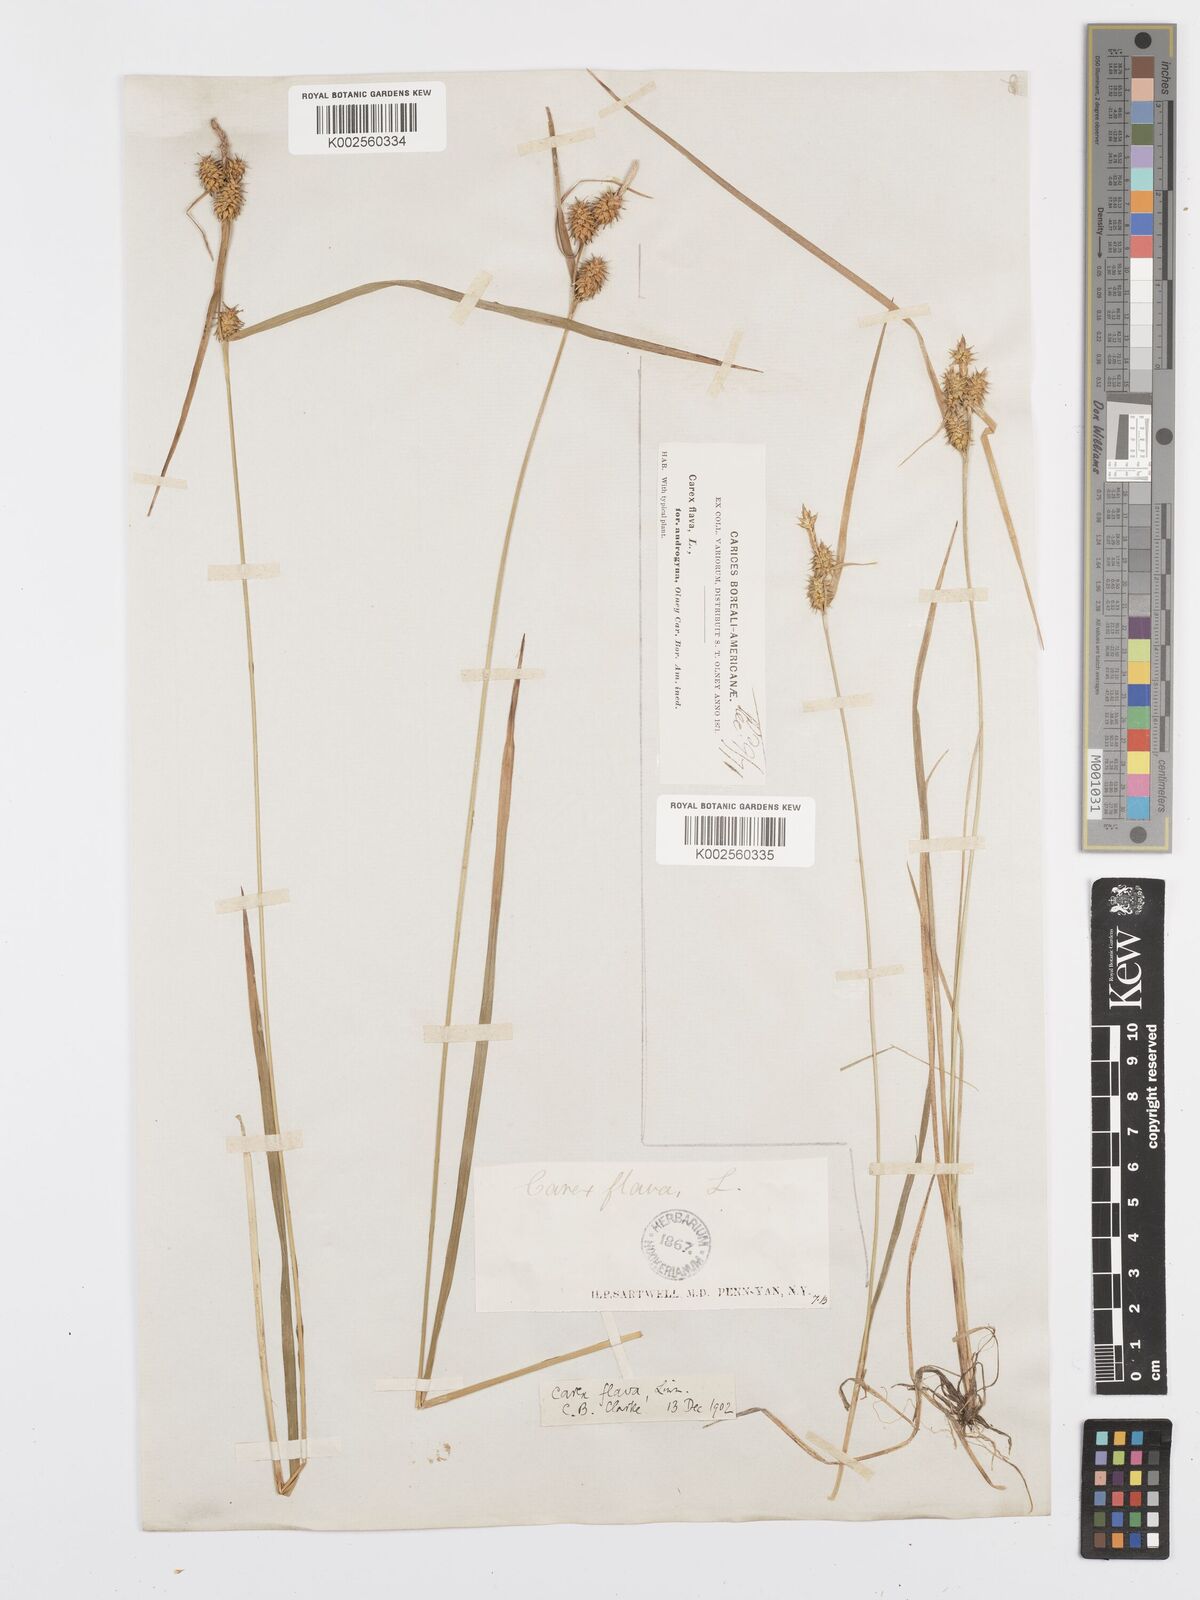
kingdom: Plantae
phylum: Tracheophyta
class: Liliopsida
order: Poales
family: Cyperaceae
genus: Carex
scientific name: Carex flava
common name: Large yellow-sedge
